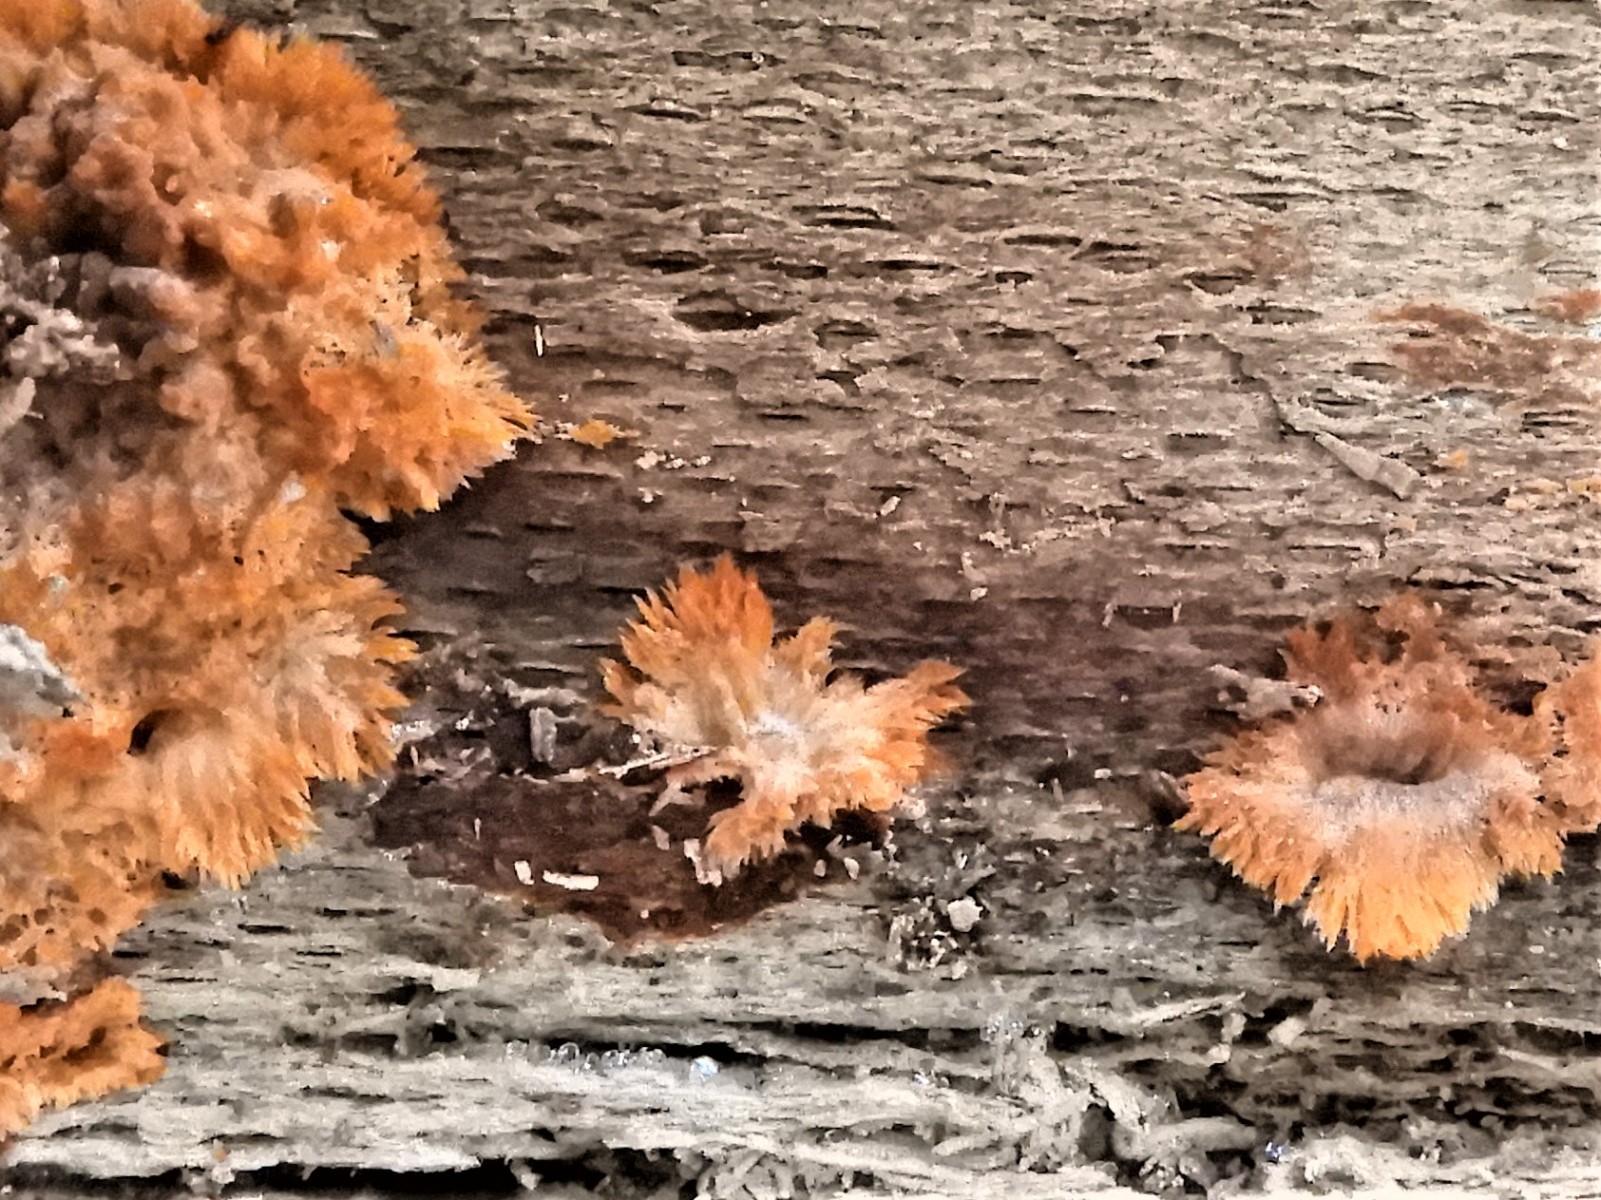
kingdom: Fungi
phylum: Basidiomycota
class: Agaricomycetes
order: Polyporales
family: Meruliaceae
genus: Phlebia
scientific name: Phlebia radiata
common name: stråle-åresvamp
